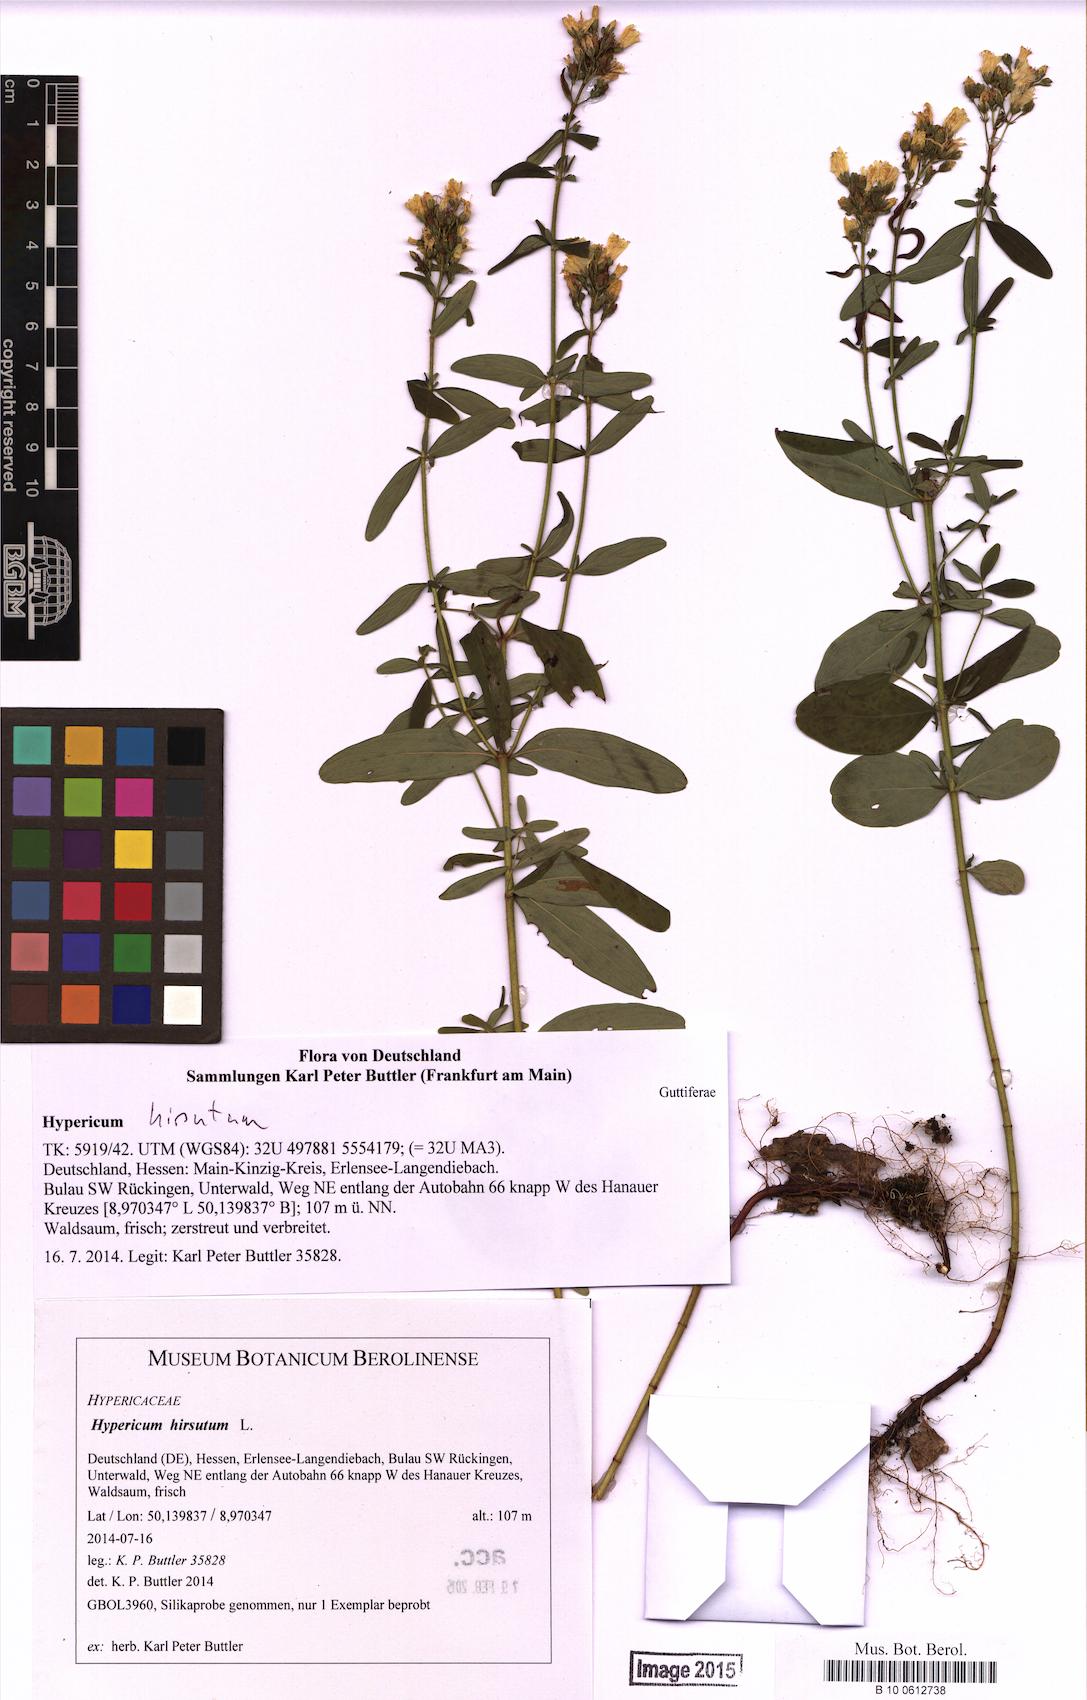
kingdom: Plantae
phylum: Tracheophyta
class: Magnoliopsida
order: Malpighiales
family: Hypericaceae
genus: Hypericum
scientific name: Hypericum hirsutum
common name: Hairy st. john's-wort
